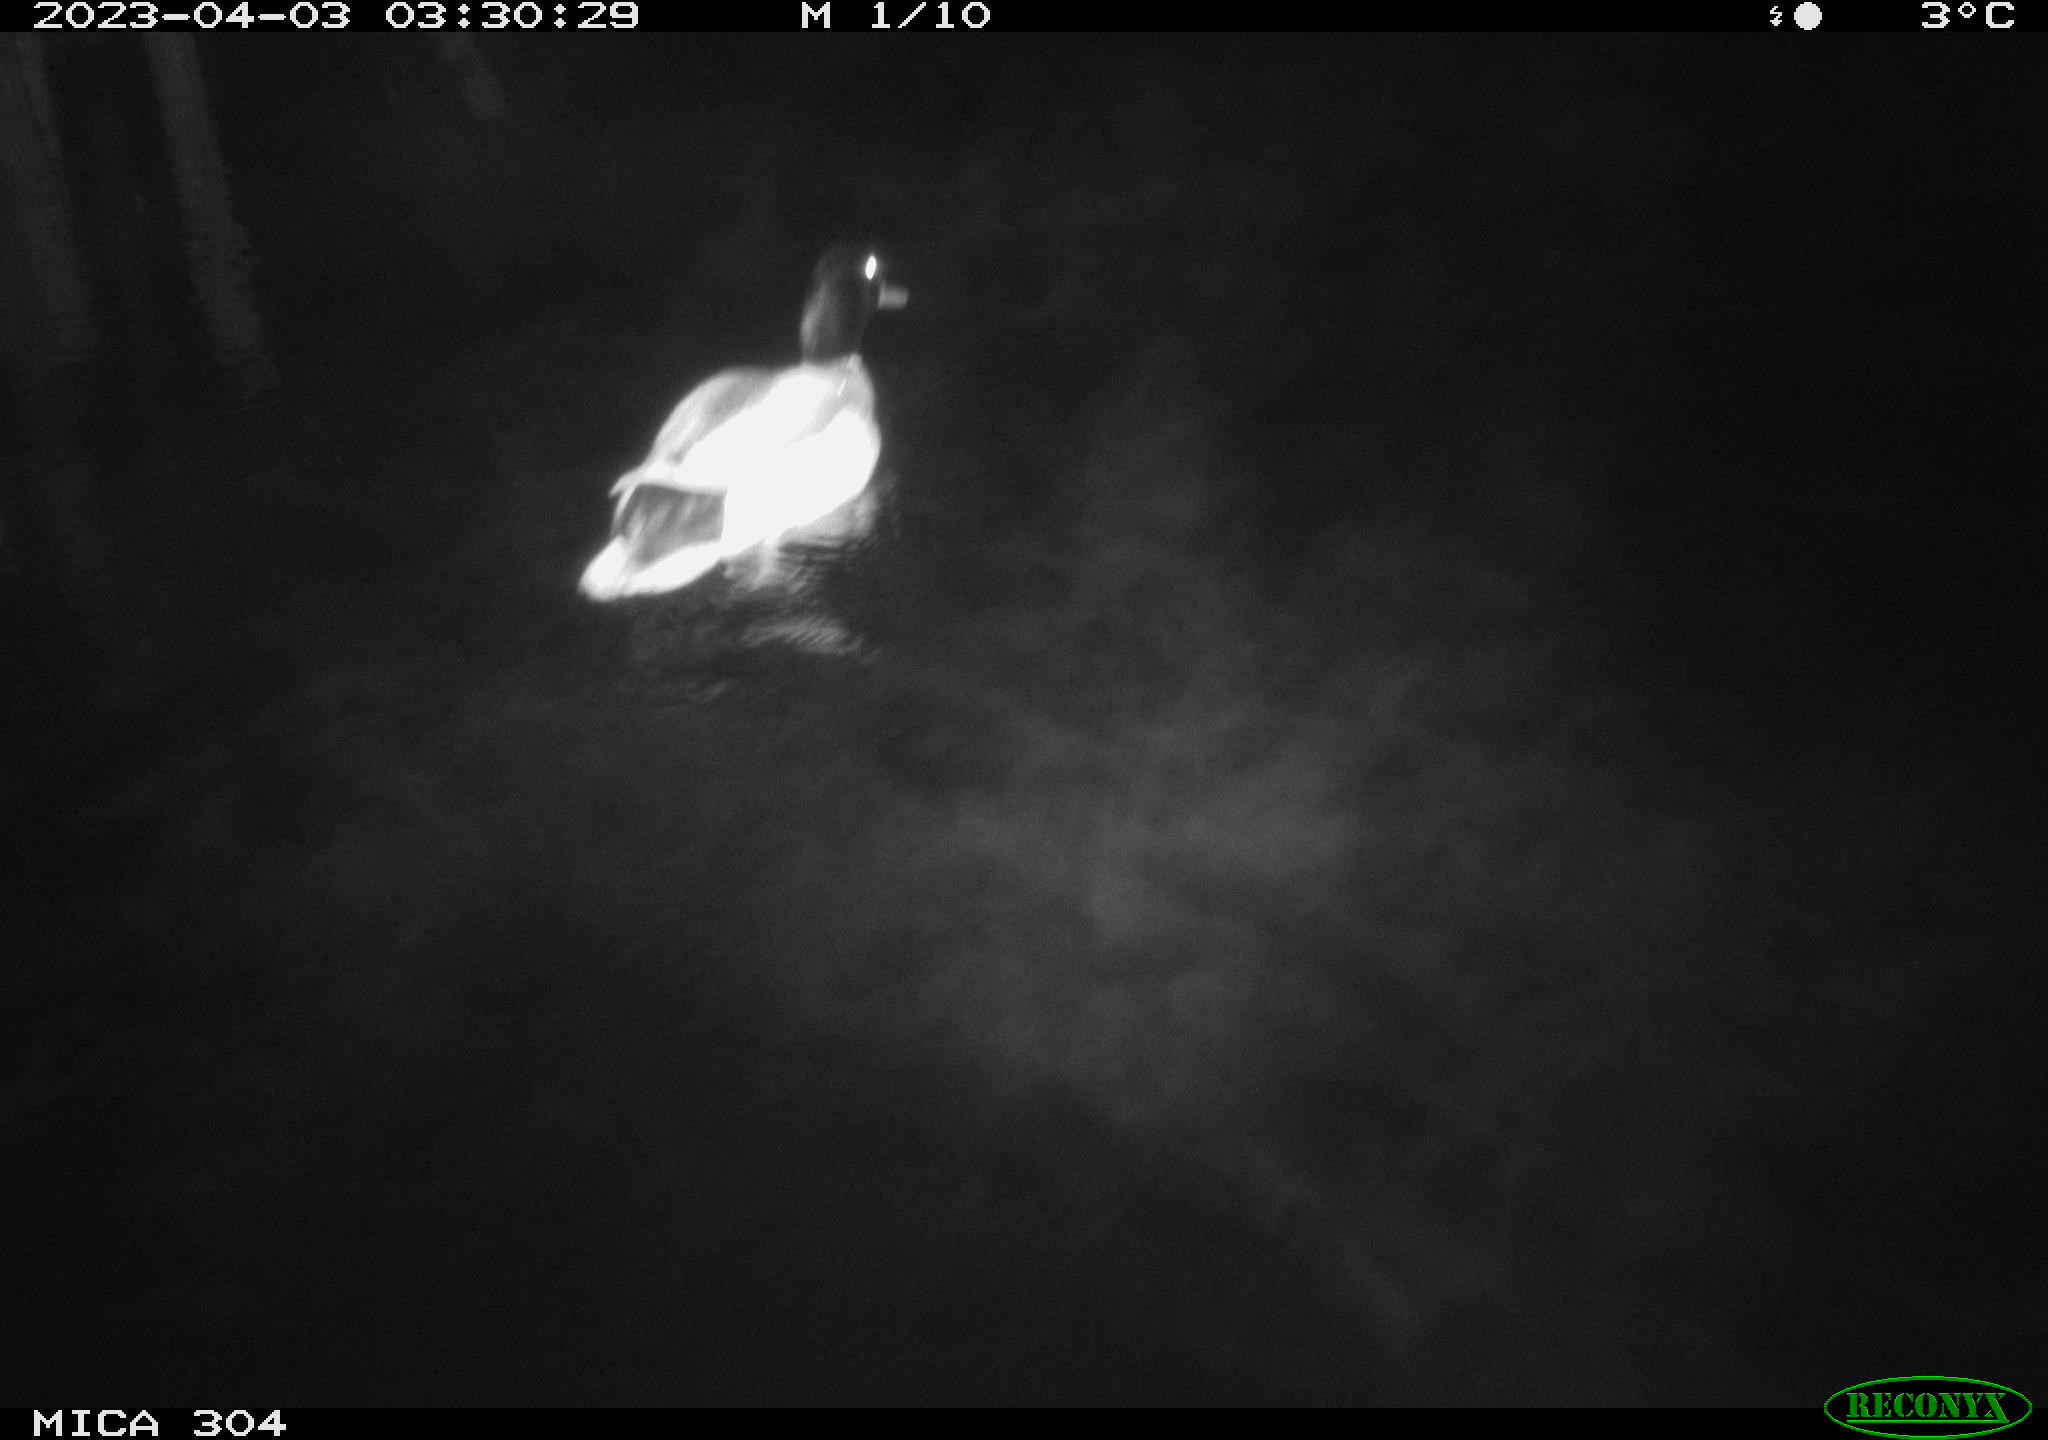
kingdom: Animalia
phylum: Chordata
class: Aves
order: Anseriformes
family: Anatidae
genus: Anas
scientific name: Anas
